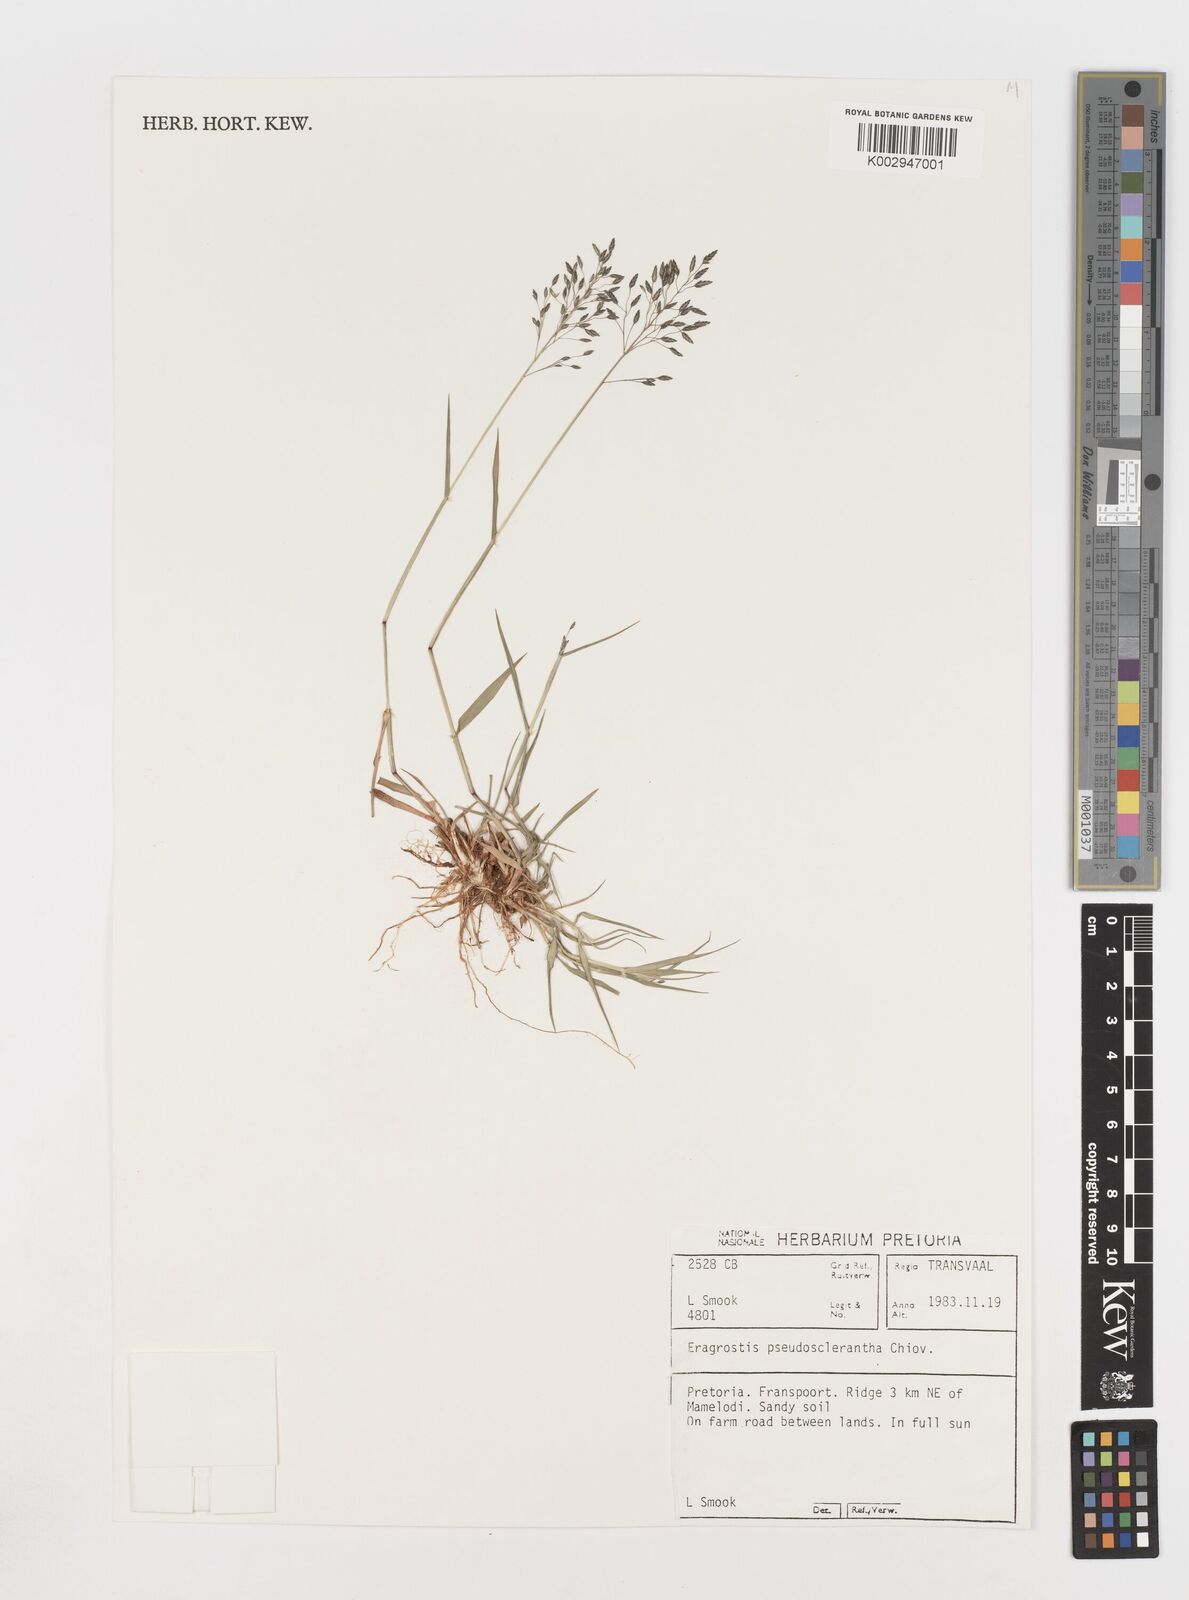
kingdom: Plantae
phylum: Tracheophyta
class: Liliopsida
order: Poales
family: Poaceae
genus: Eragrostis
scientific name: Eragrostis patentipilosa
